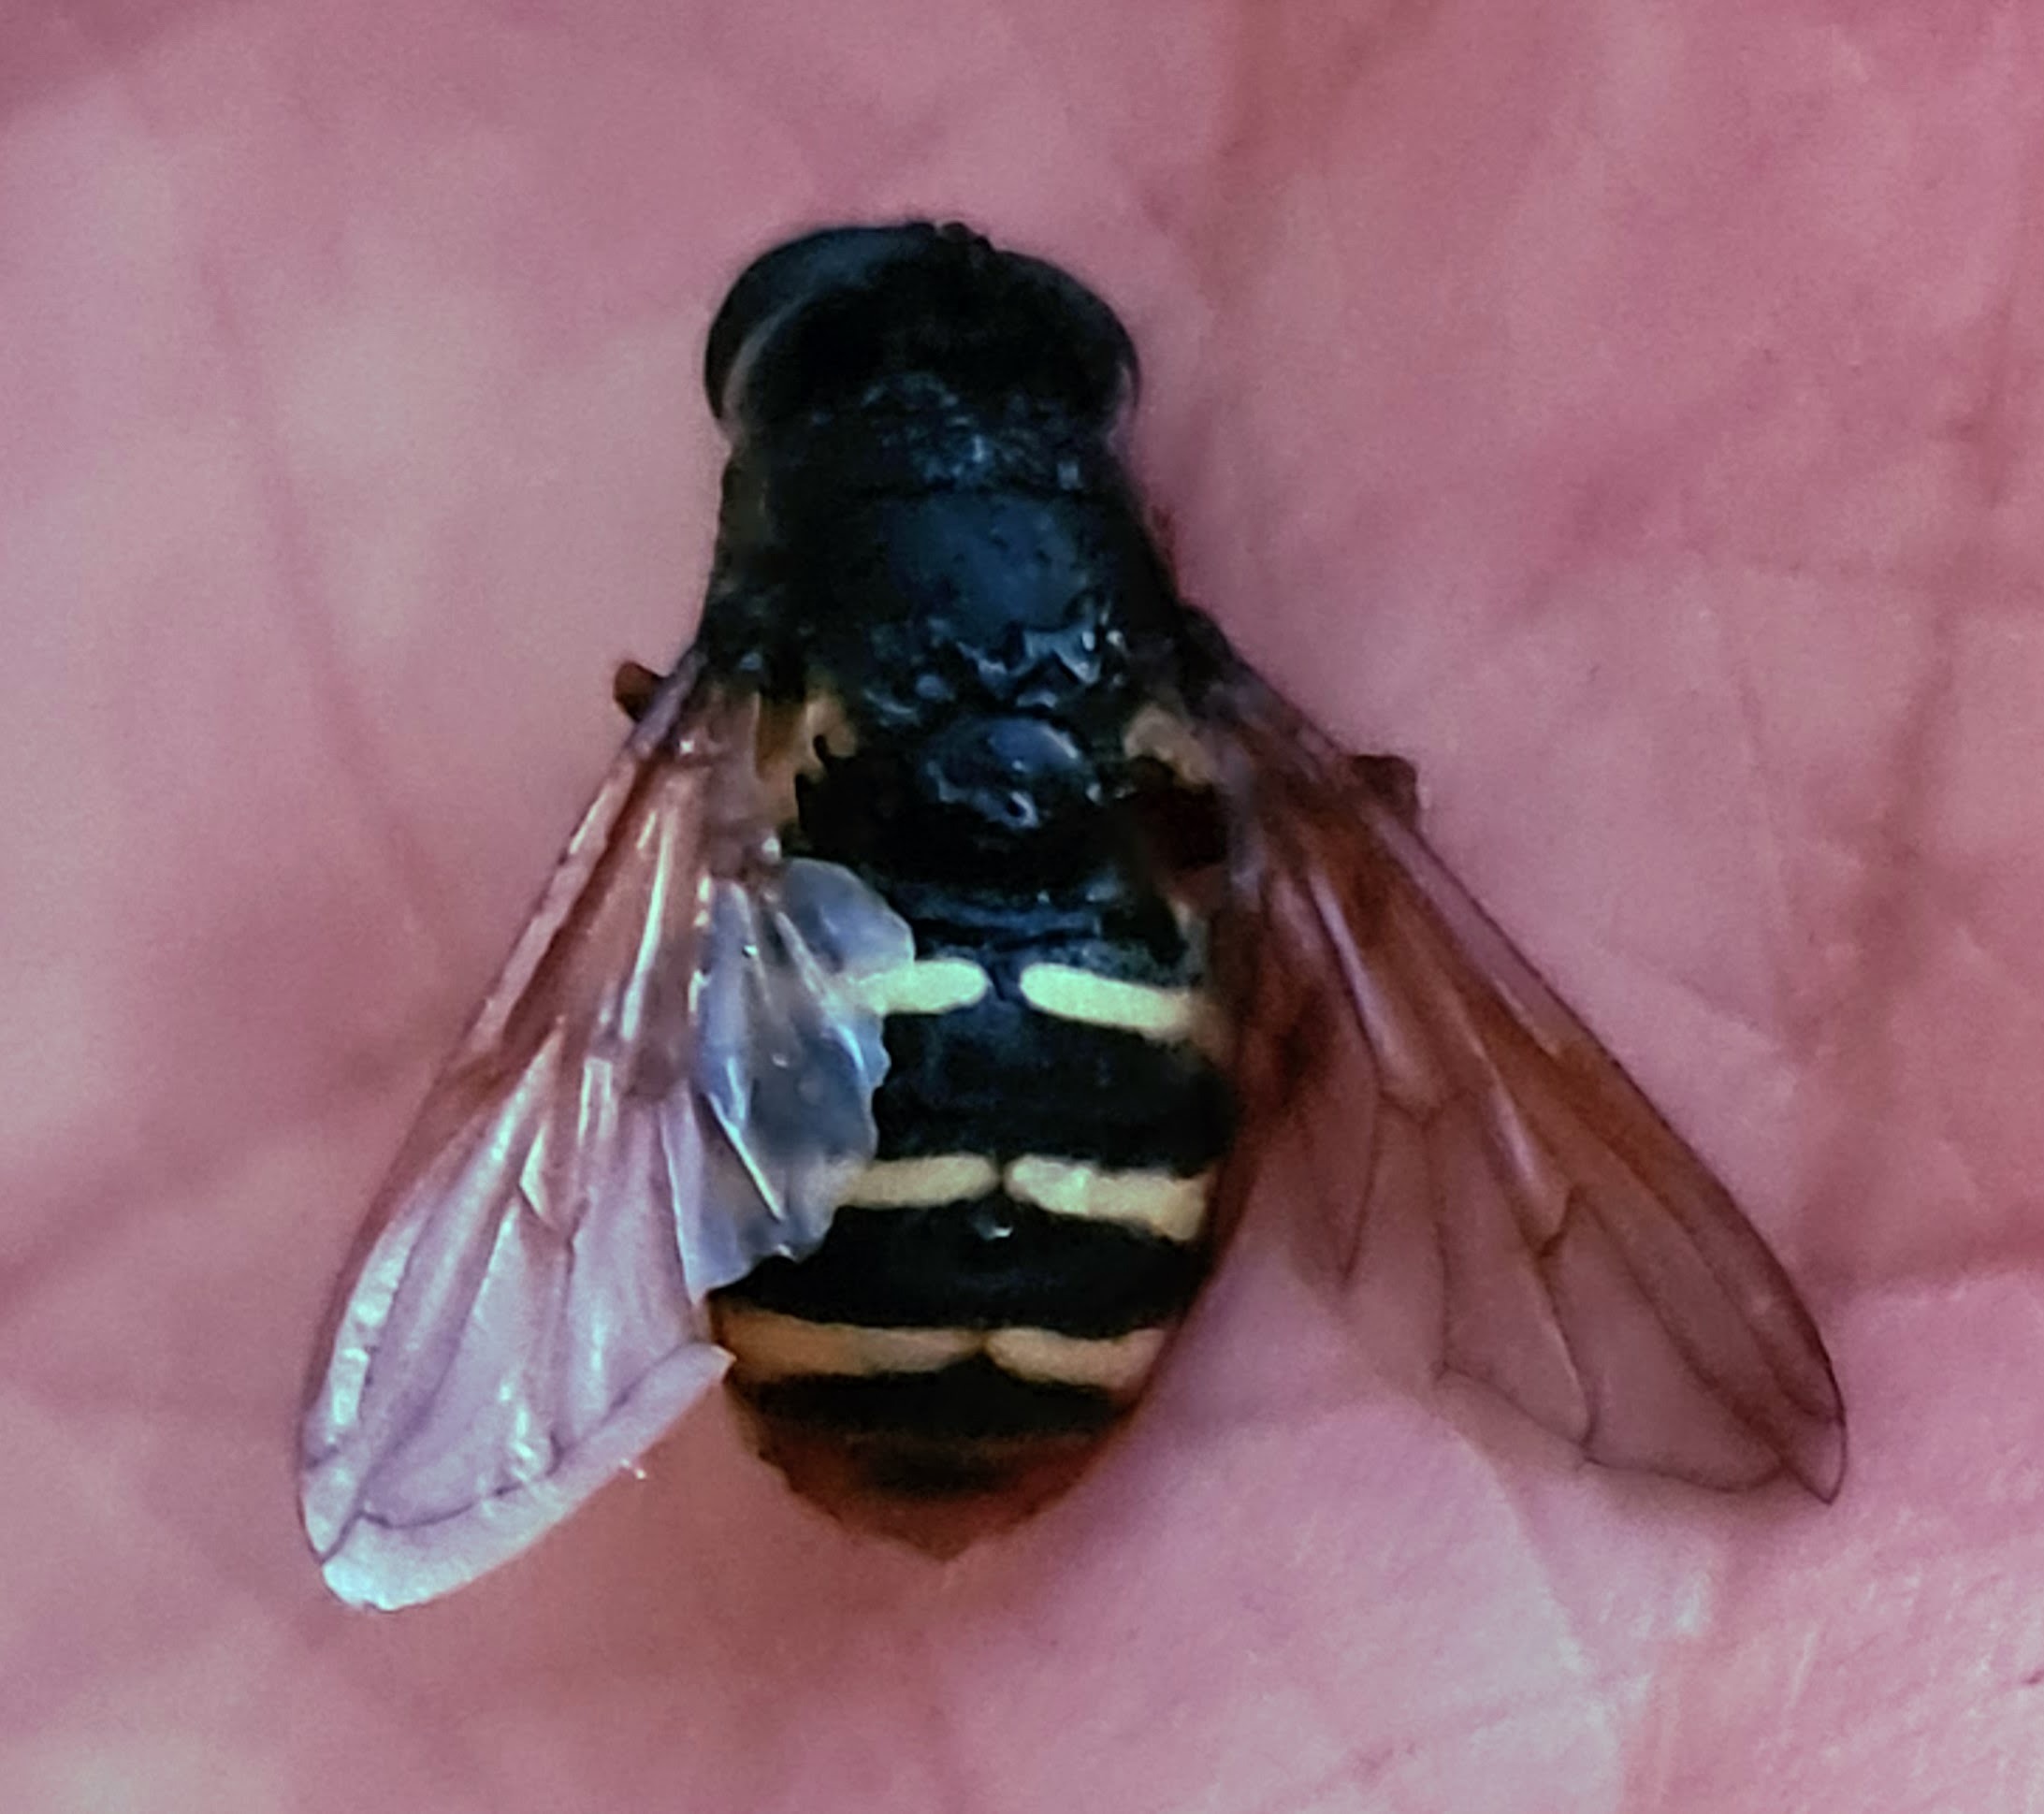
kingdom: Animalia
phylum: Arthropoda
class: Insecta
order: Diptera
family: Syrphidae
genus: Sericomyia
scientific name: Sericomyia silentis
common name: Tørve-silkesvirreflue
